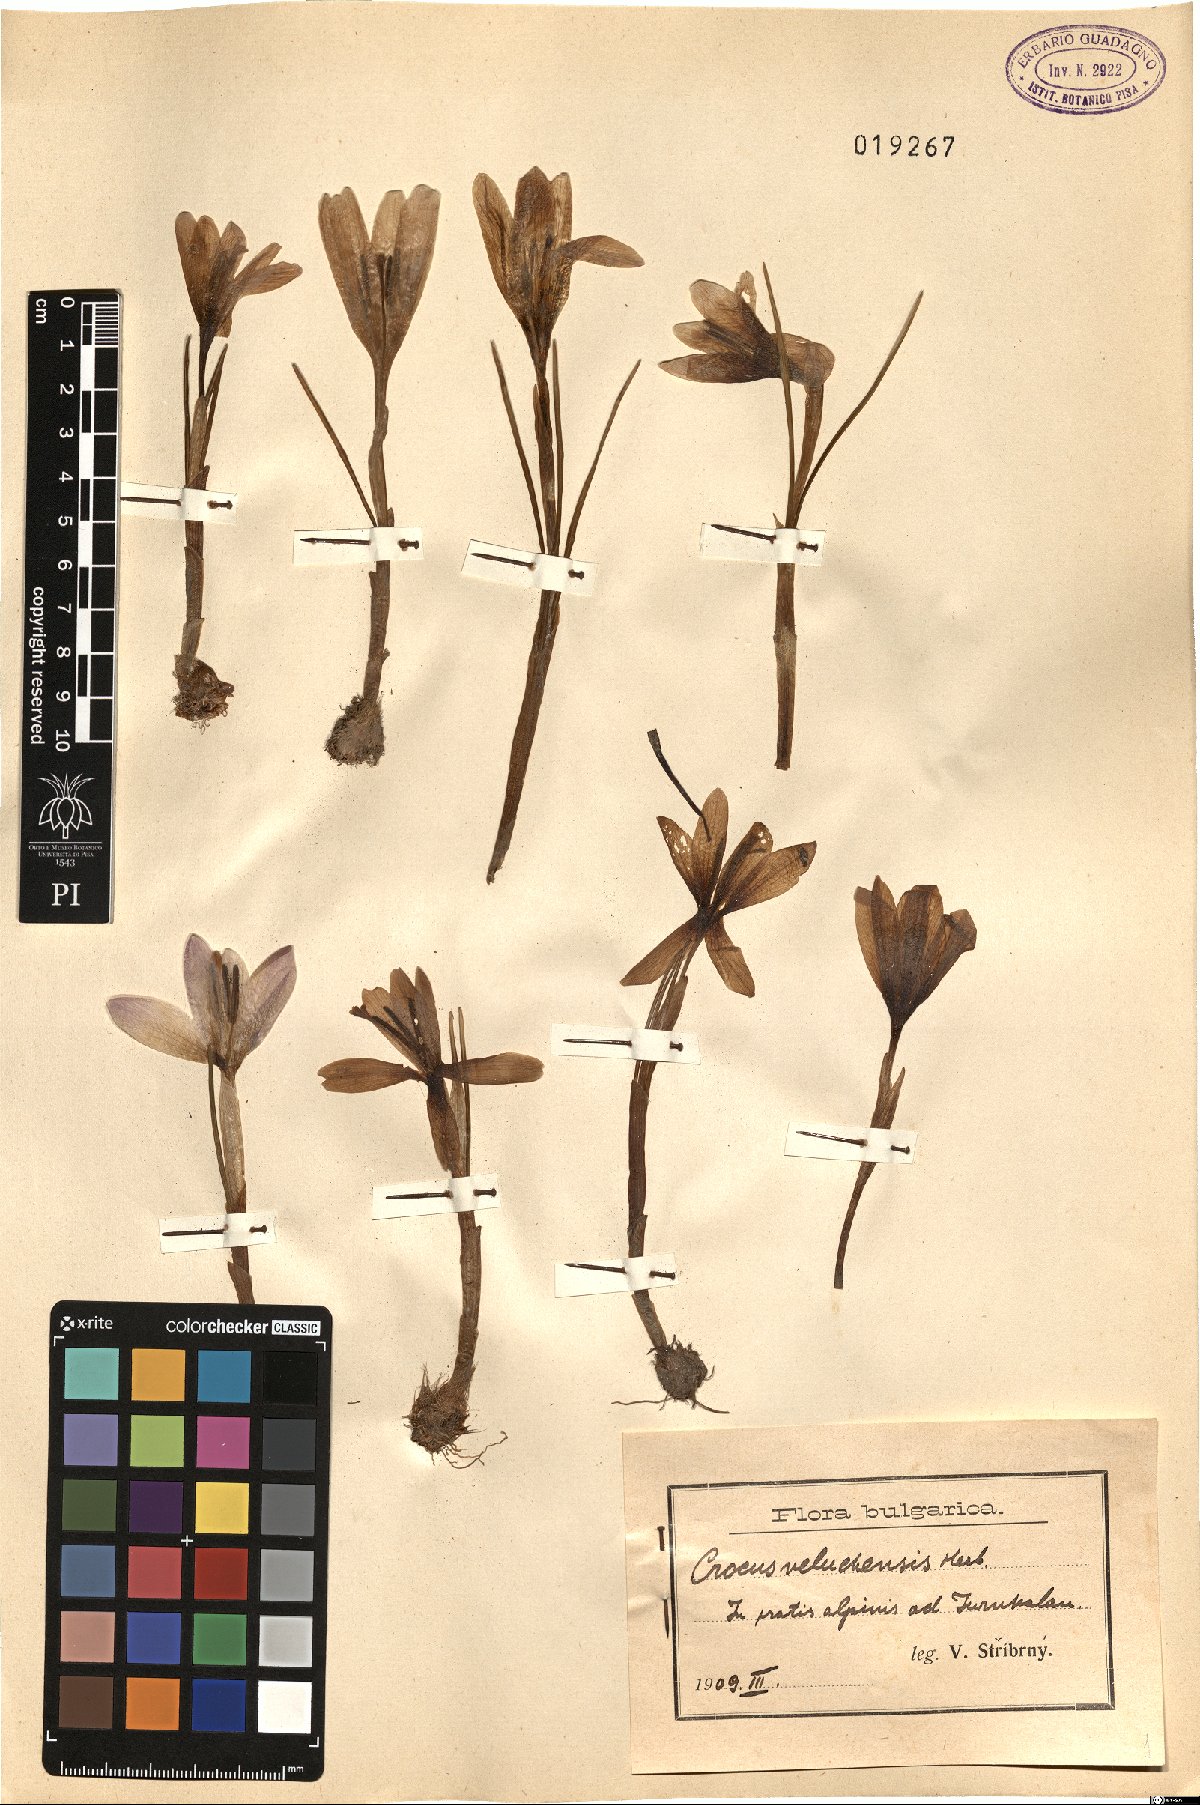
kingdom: Plantae
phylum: Tracheophyta
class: Liliopsida
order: Asparagales
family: Iridaceae
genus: Crocus
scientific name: Crocus veluchensis
